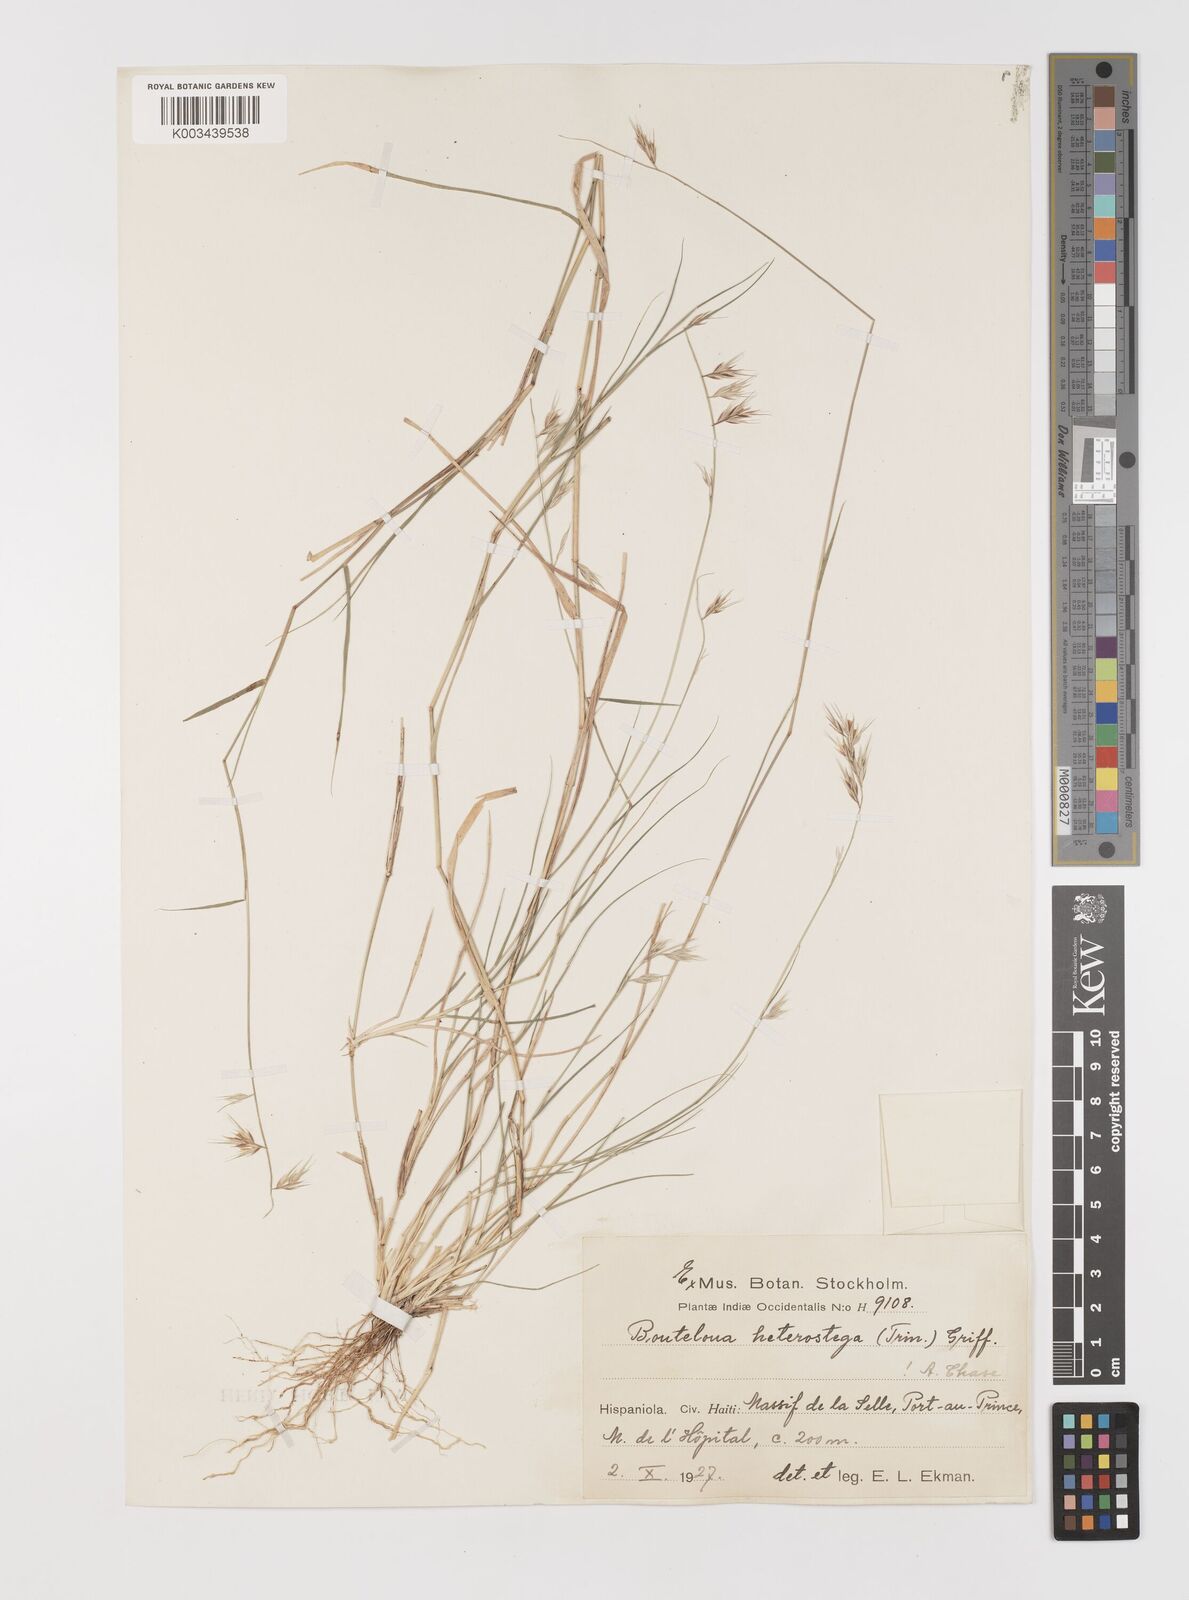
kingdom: Plantae
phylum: Tracheophyta
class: Liliopsida
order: Poales
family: Poaceae
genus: Bouteloua
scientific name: Bouteloua repens
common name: Slender grama
